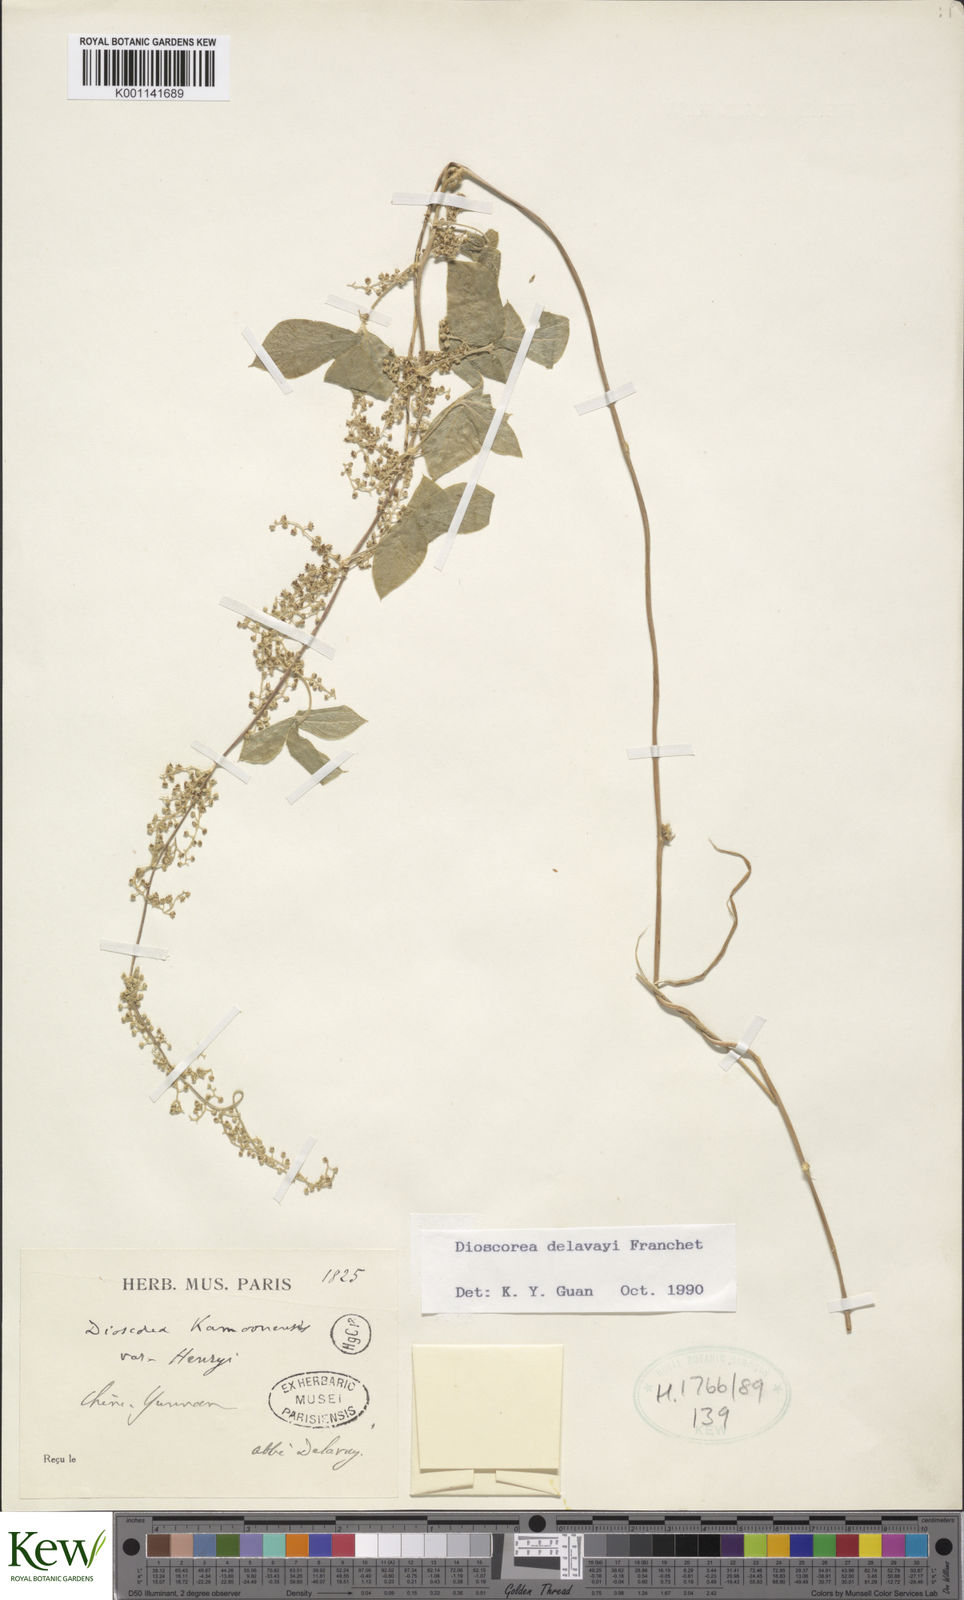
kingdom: Plantae
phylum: Tracheophyta
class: Liliopsida
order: Dioscoreales
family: Dioscoreaceae
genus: Dioscorea
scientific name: Dioscorea kamoonensis
